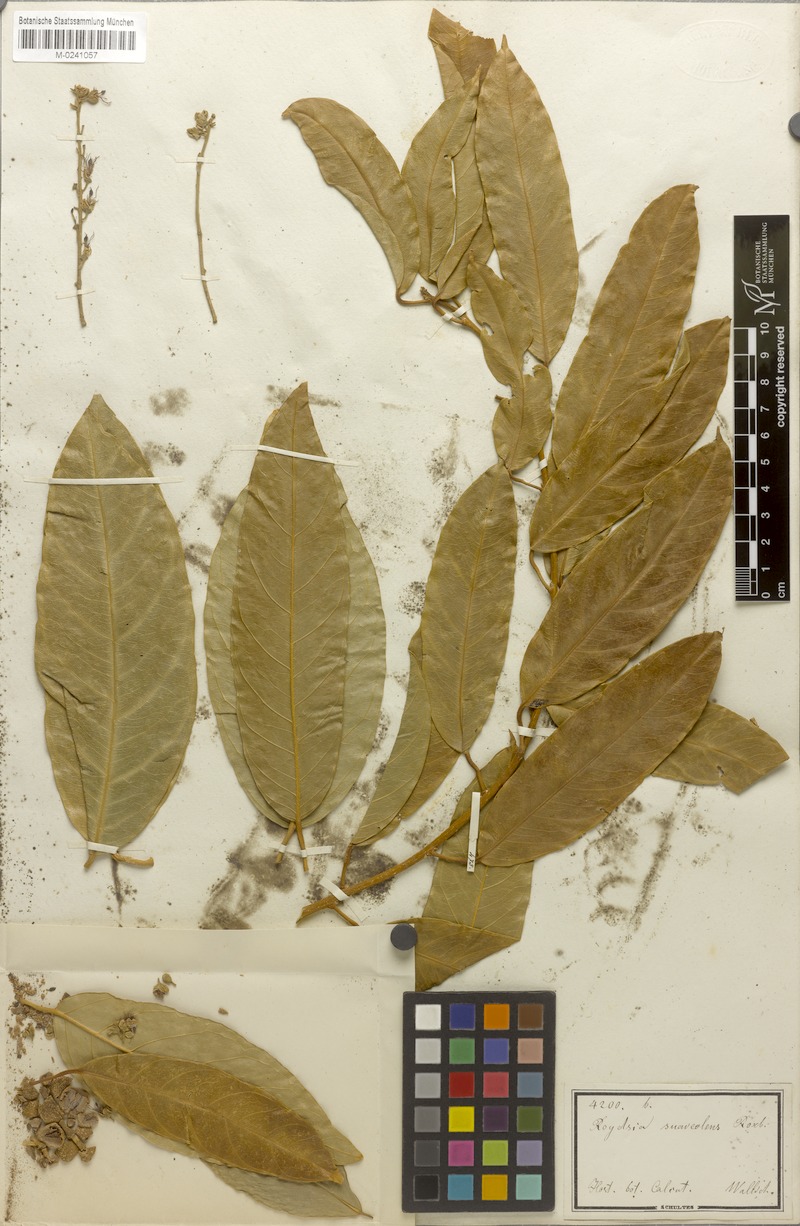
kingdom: Plantae
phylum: Tracheophyta
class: Magnoliopsida
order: Brassicales
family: Stixaceae
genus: Stixis
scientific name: Stixis suaveolens
